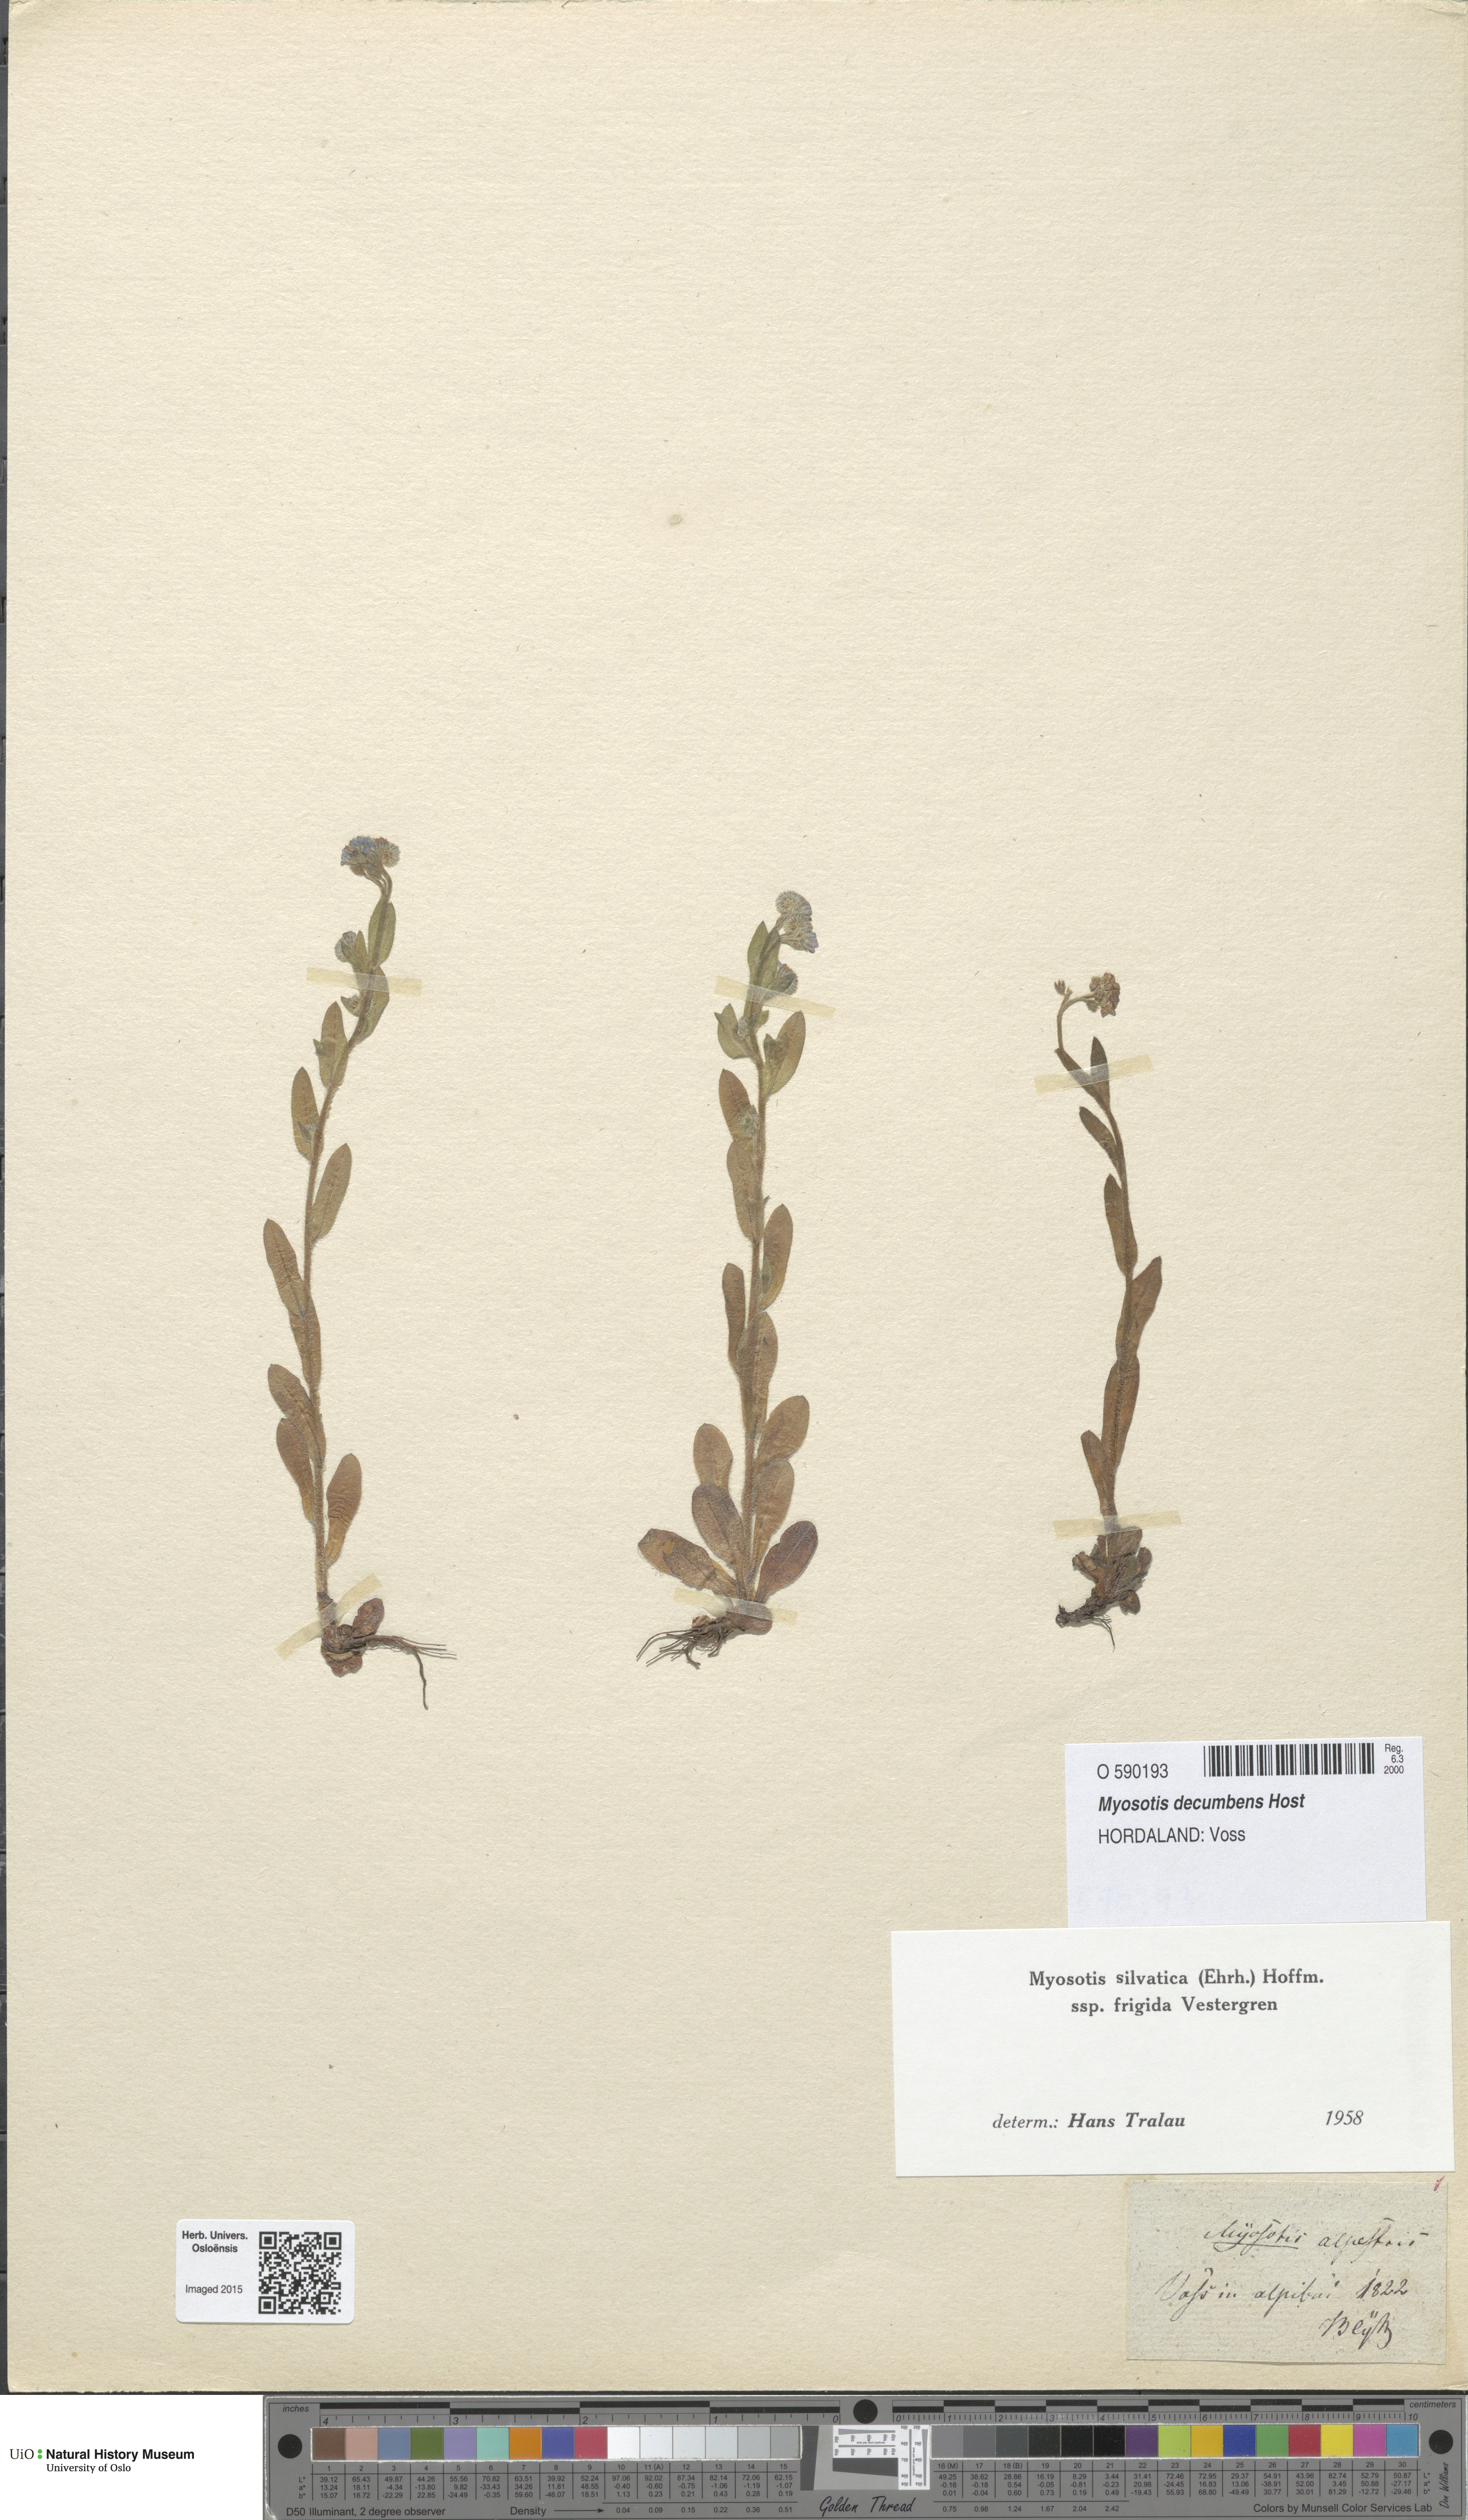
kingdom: Plantae
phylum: Tracheophyta
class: Magnoliopsida
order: Boraginales
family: Boraginaceae
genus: Myosotis
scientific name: Myosotis decumbens
